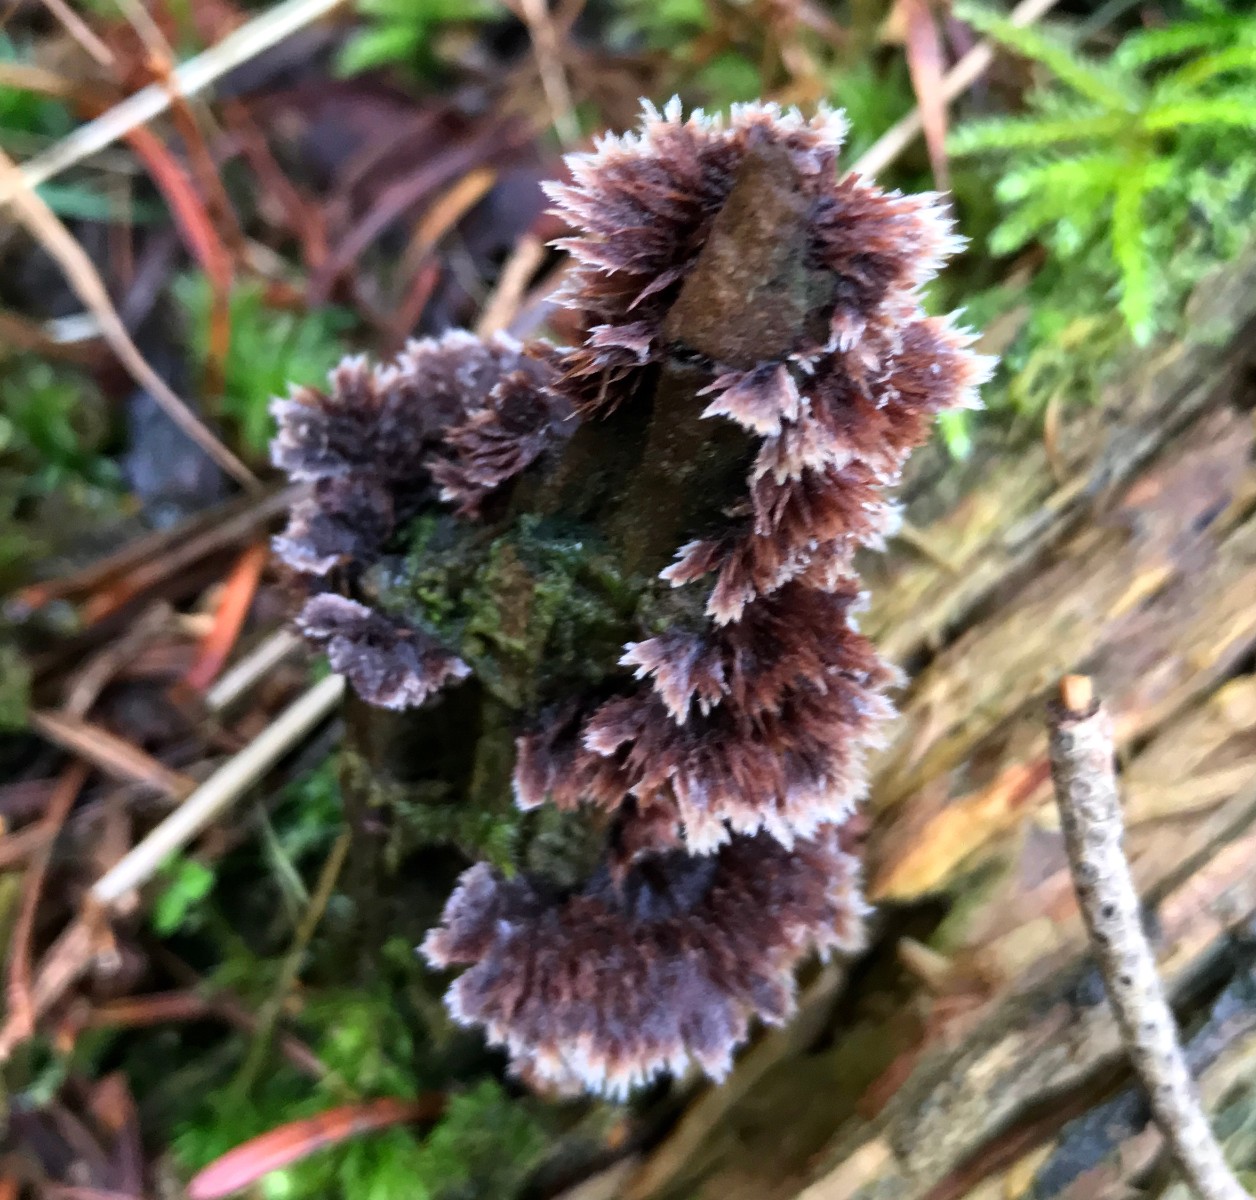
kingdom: Fungi
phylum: Basidiomycota
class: Agaricomycetes
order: Thelephorales
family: Thelephoraceae
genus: Thelephora
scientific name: Thelephora terrestris
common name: fliget frynsesvamp
